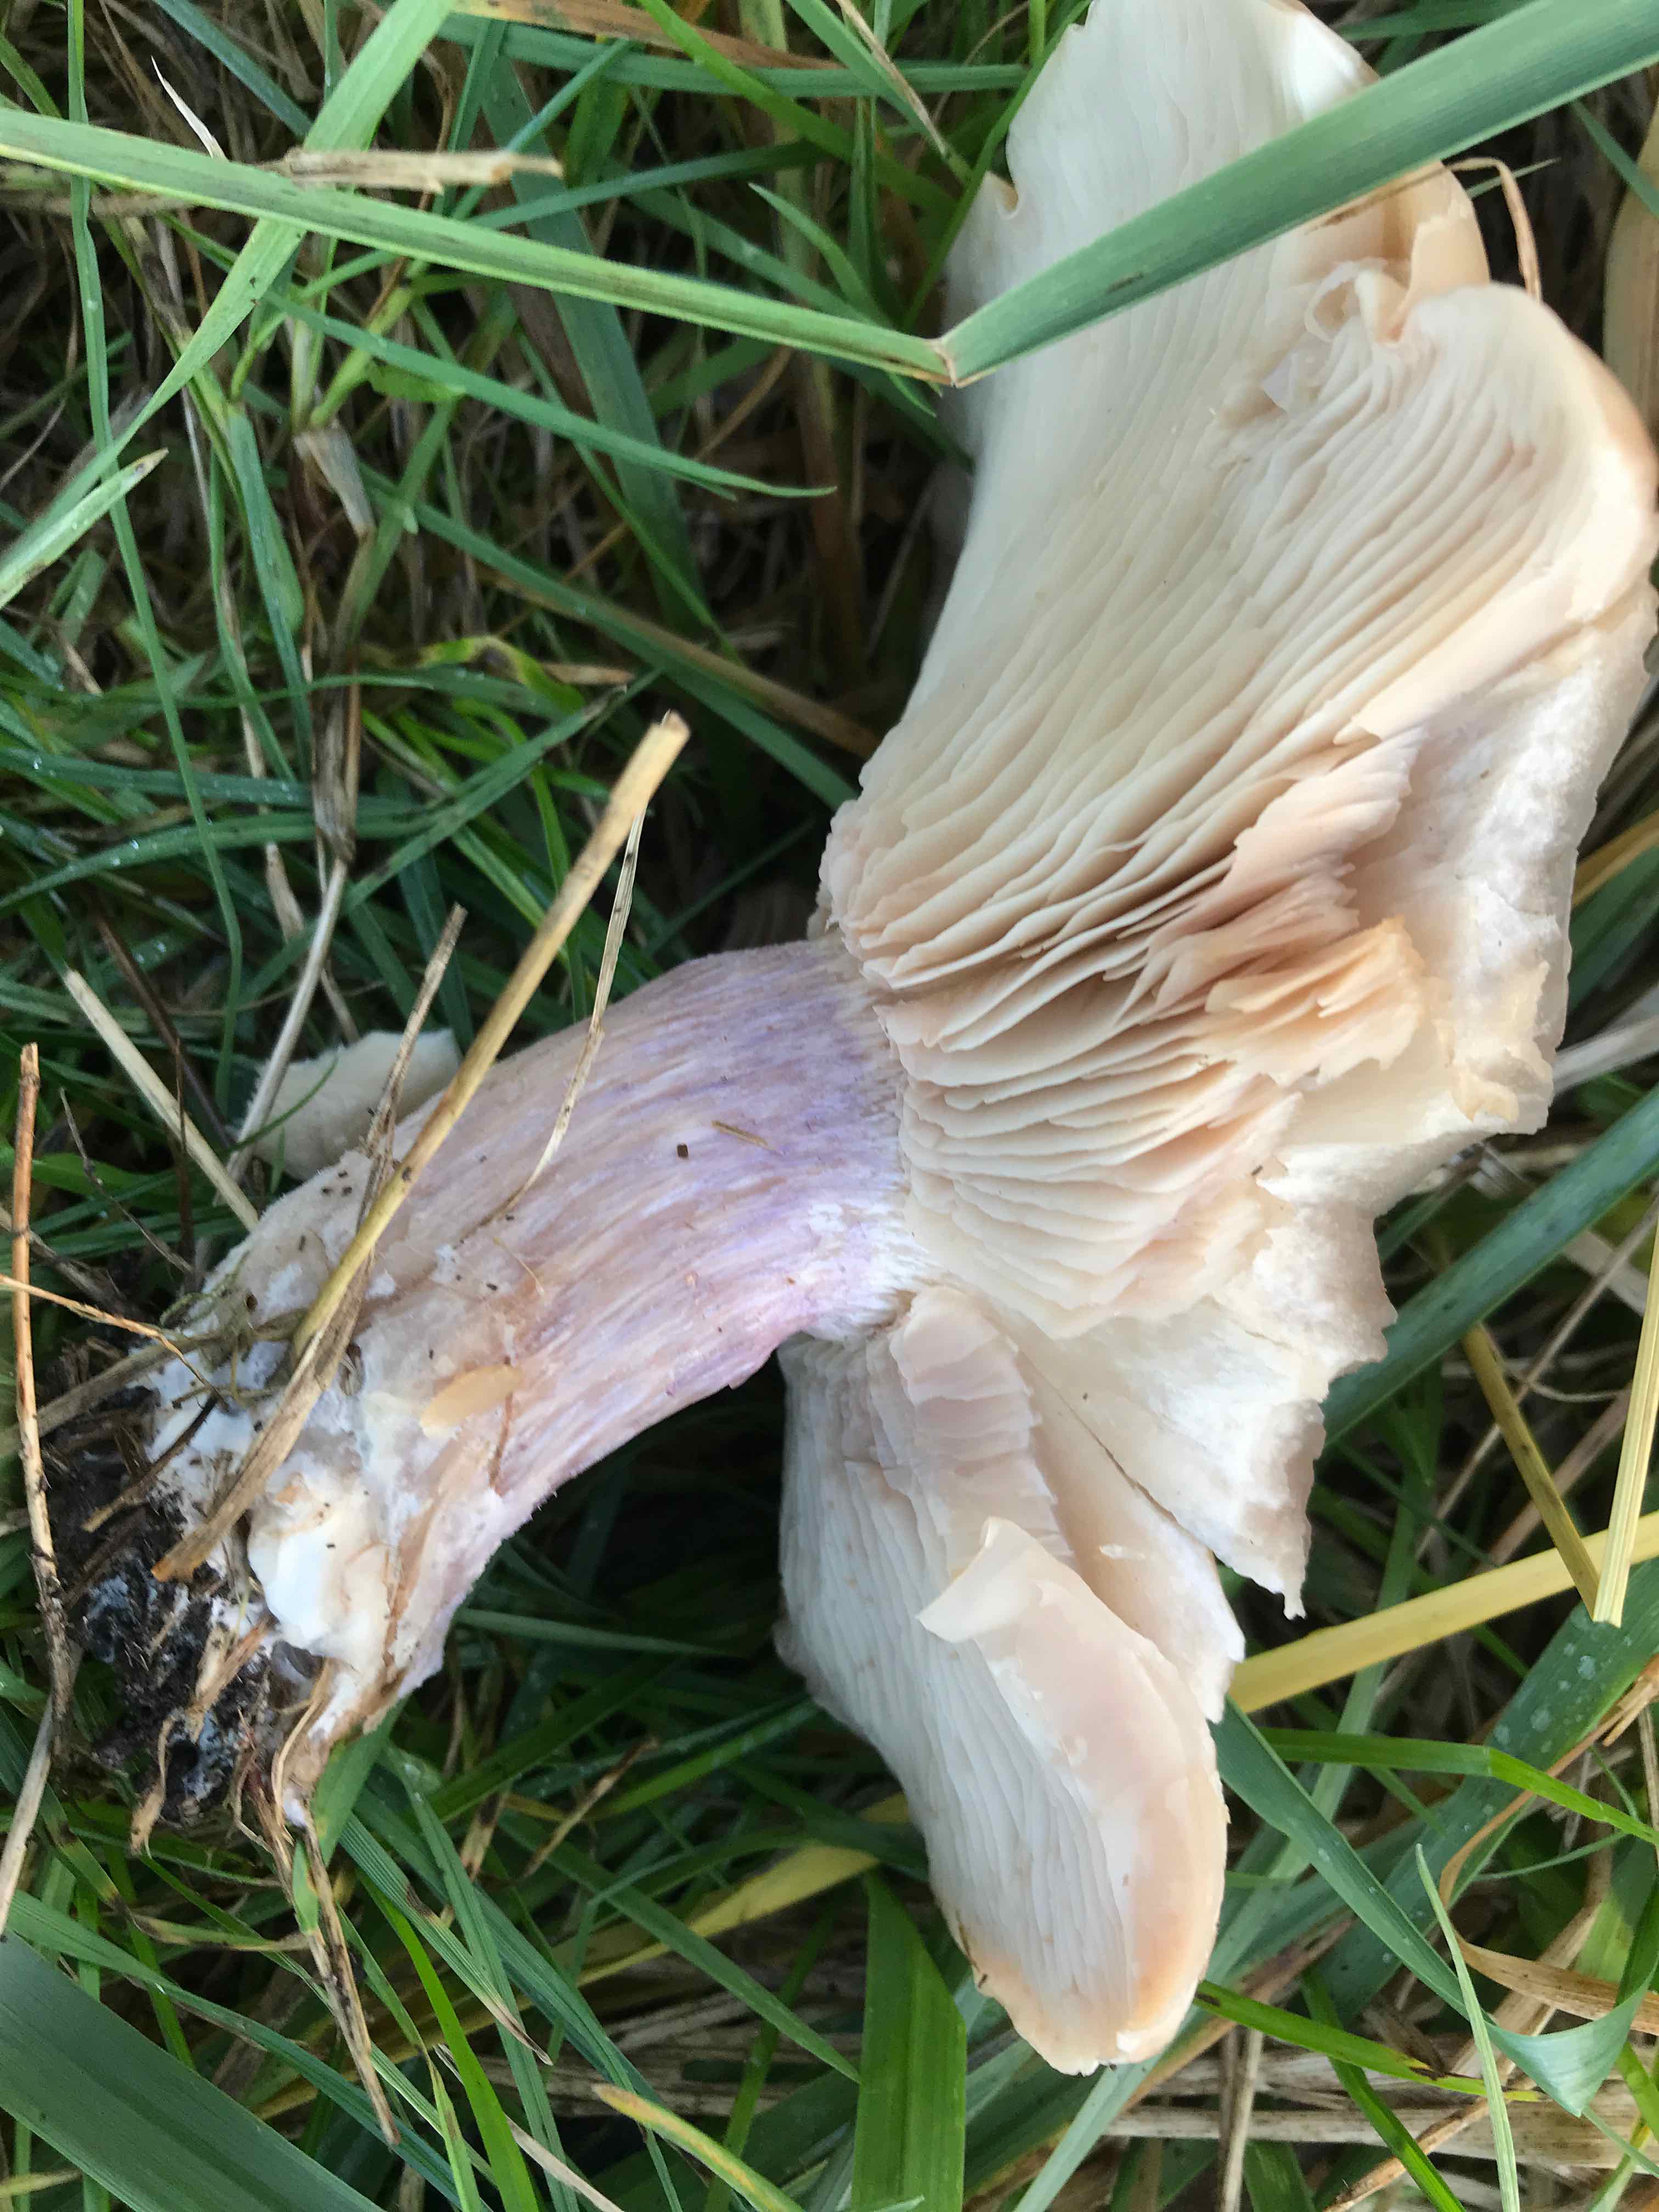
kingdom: Fungi
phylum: Basidiomycota
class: Agaricomycetes
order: Agaricales
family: Tricholomataceae
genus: Lepista
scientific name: Lepista personata
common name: bleg hekseringshat
